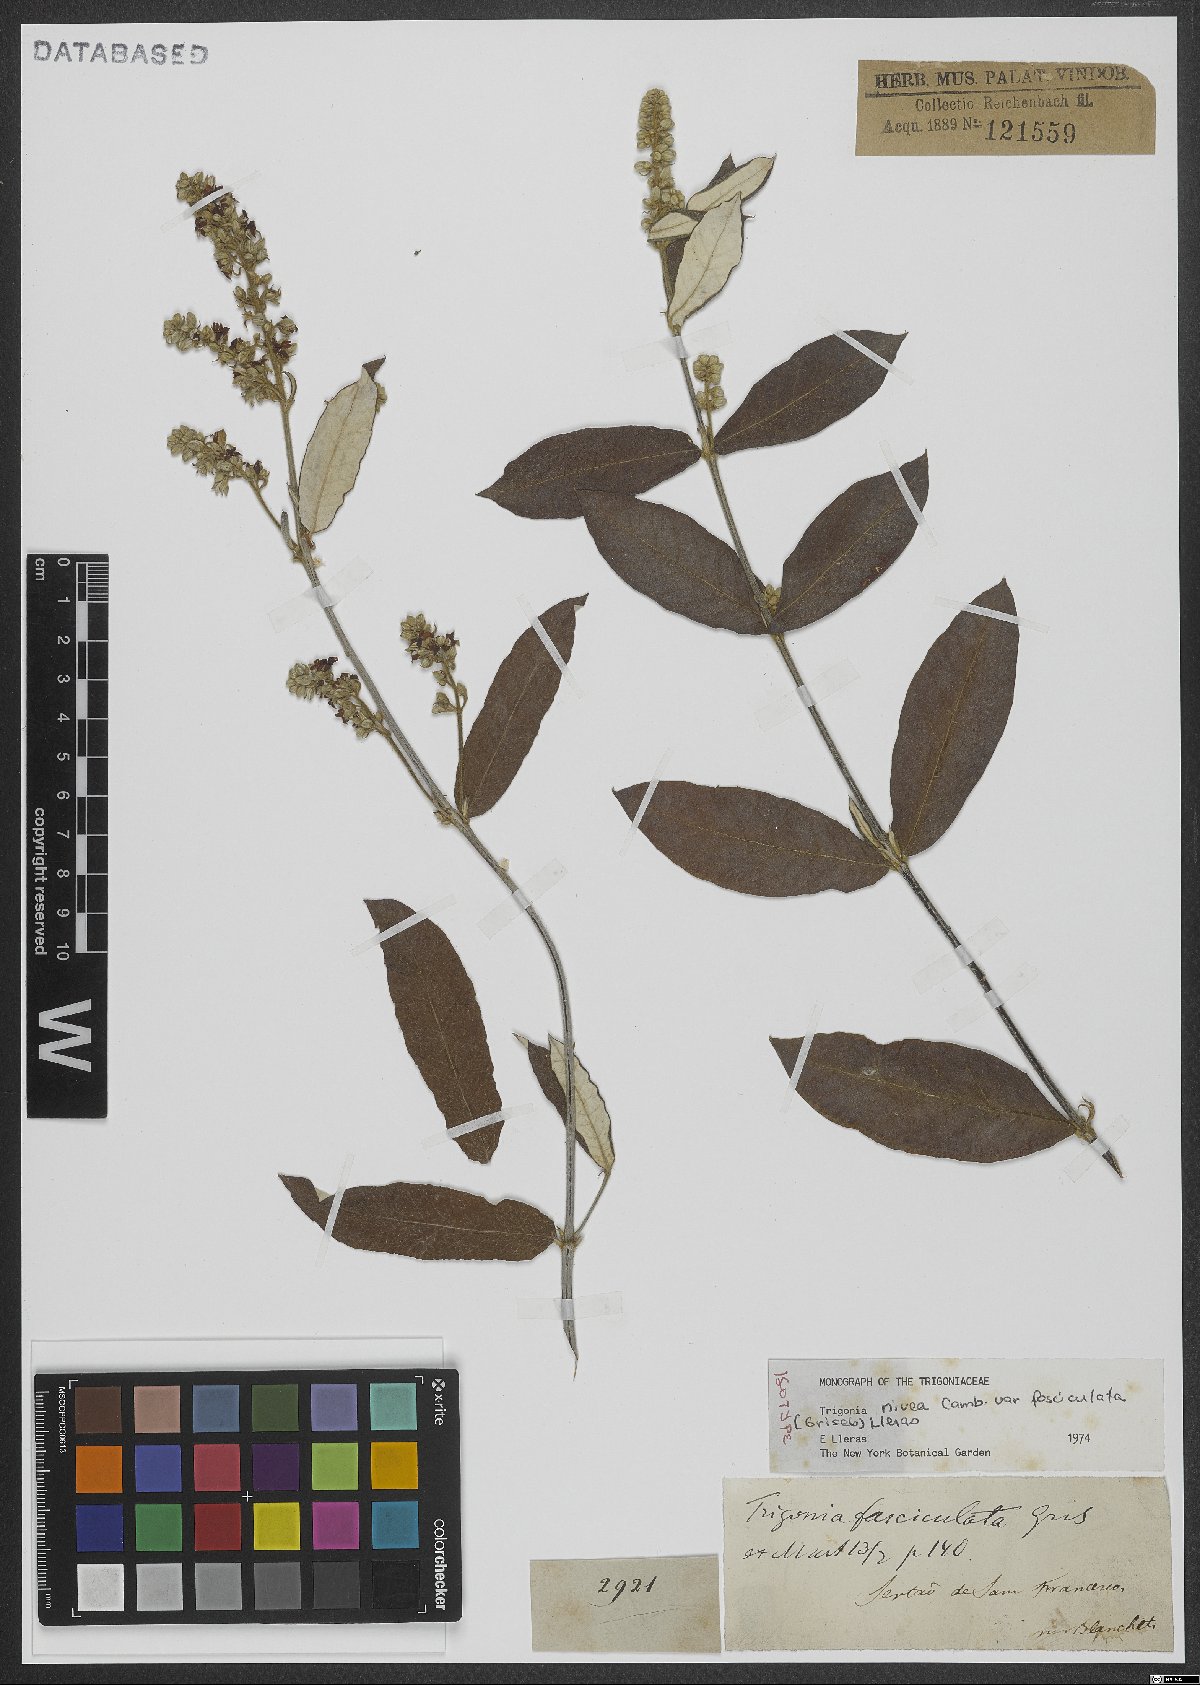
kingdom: Plantae
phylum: Tracheophyta
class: Magnoliopsida
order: Malpighiales
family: Trigoniaceae
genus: Trigonia
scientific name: Trigonia nivea
